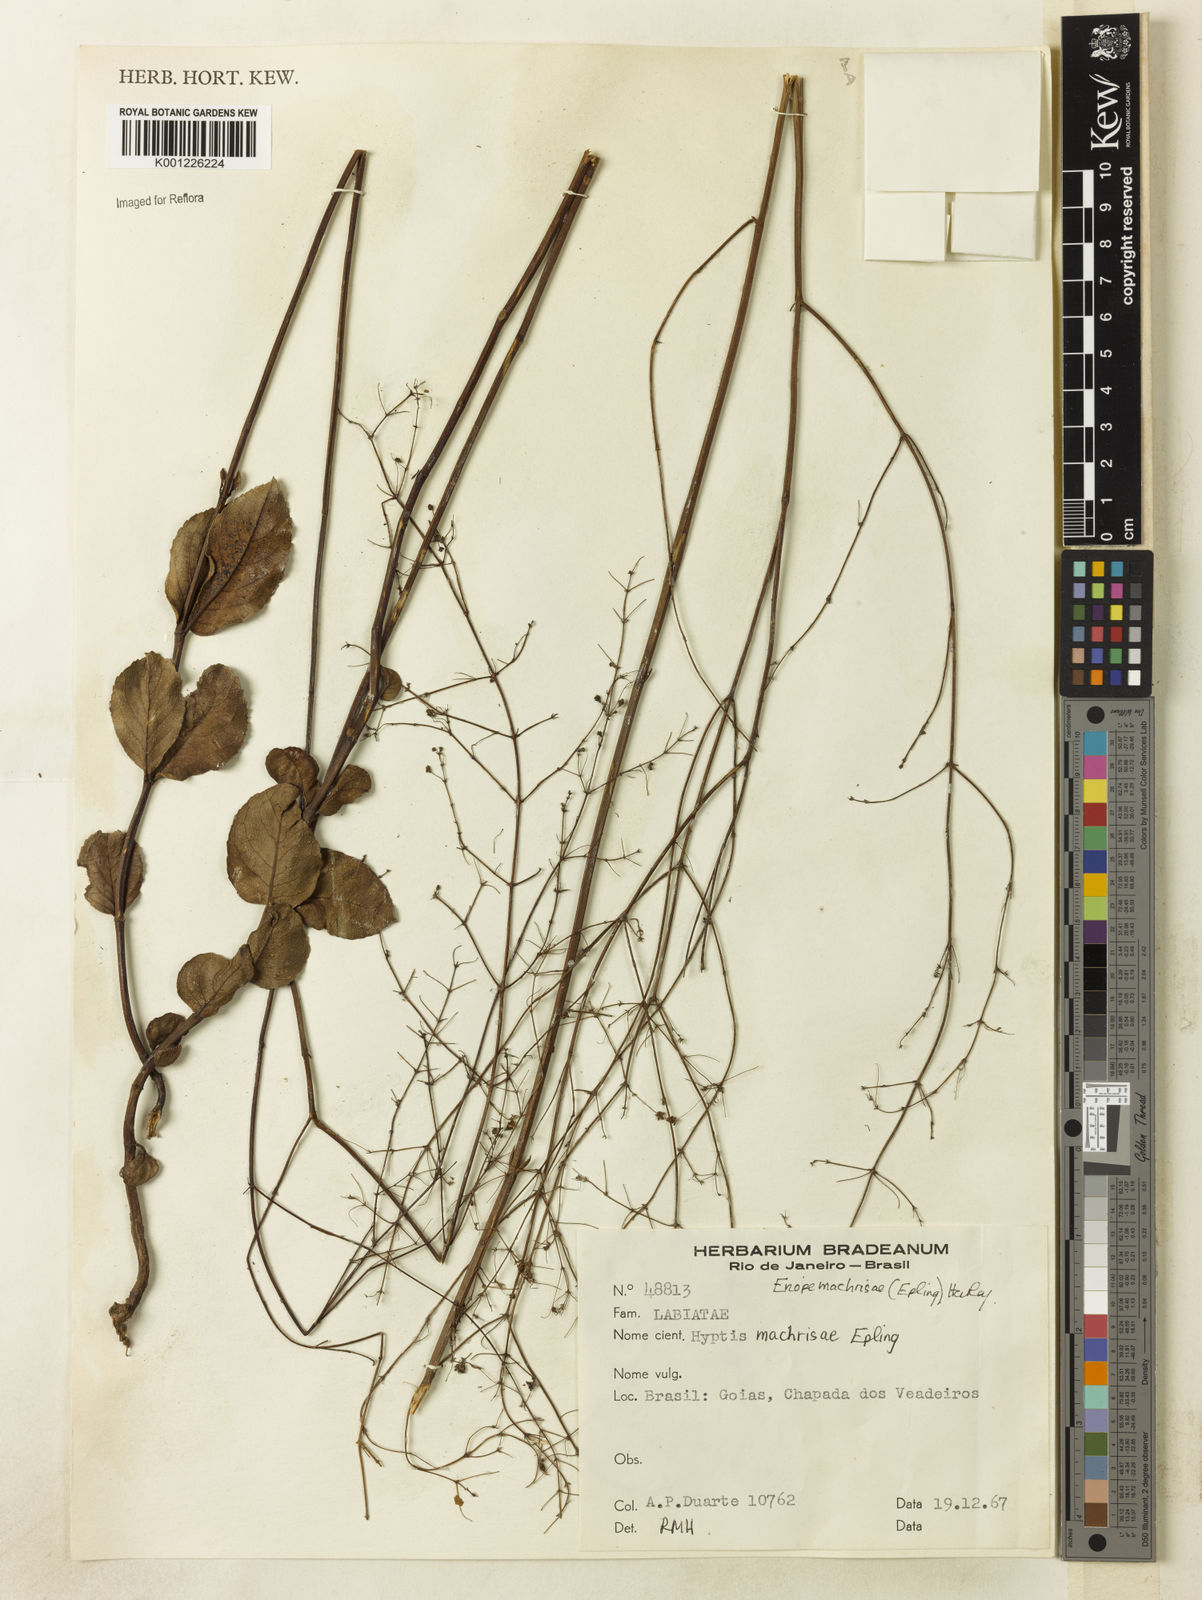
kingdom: Plantae
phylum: Tracheophyta
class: Magnoliopsida
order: Lamiales
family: Lamiaceae
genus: Eriope
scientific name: Eriope machrisae
